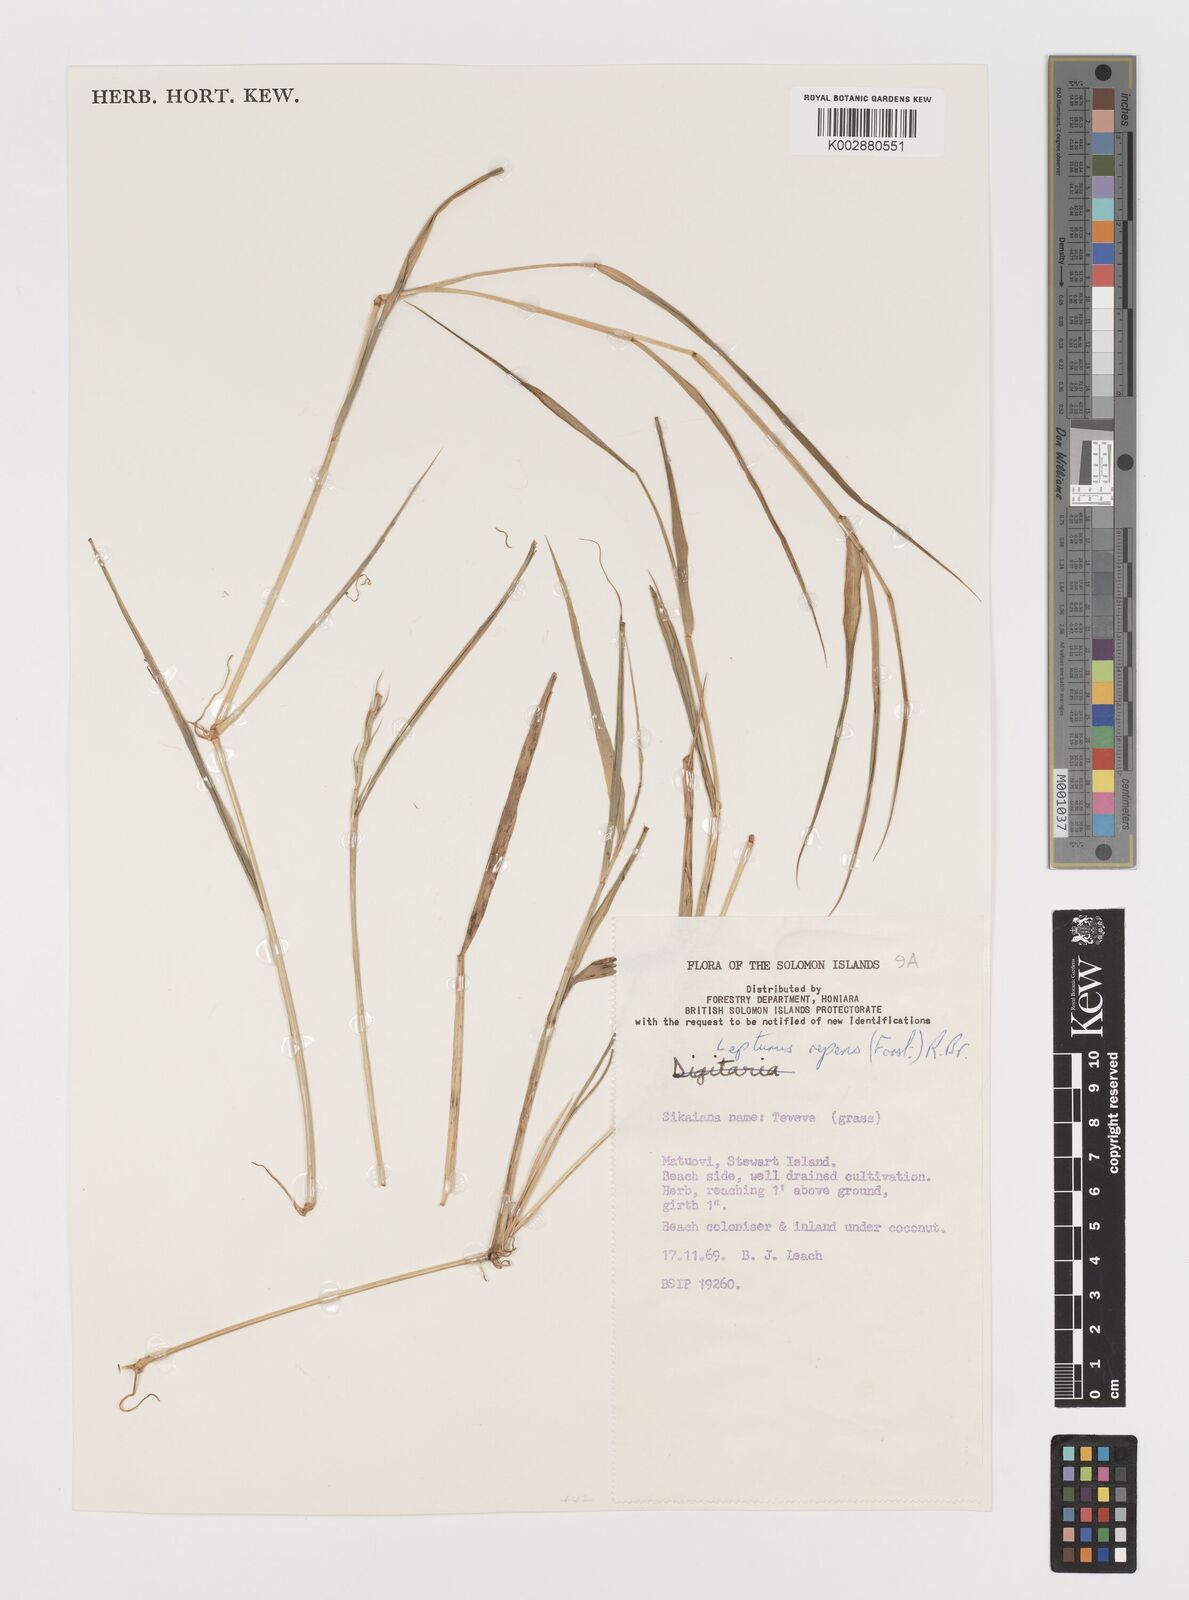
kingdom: Plantae
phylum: Tracheophyta
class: Liliopsida
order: Poales
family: Poaceae
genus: Lepturus
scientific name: Lepturus repens
